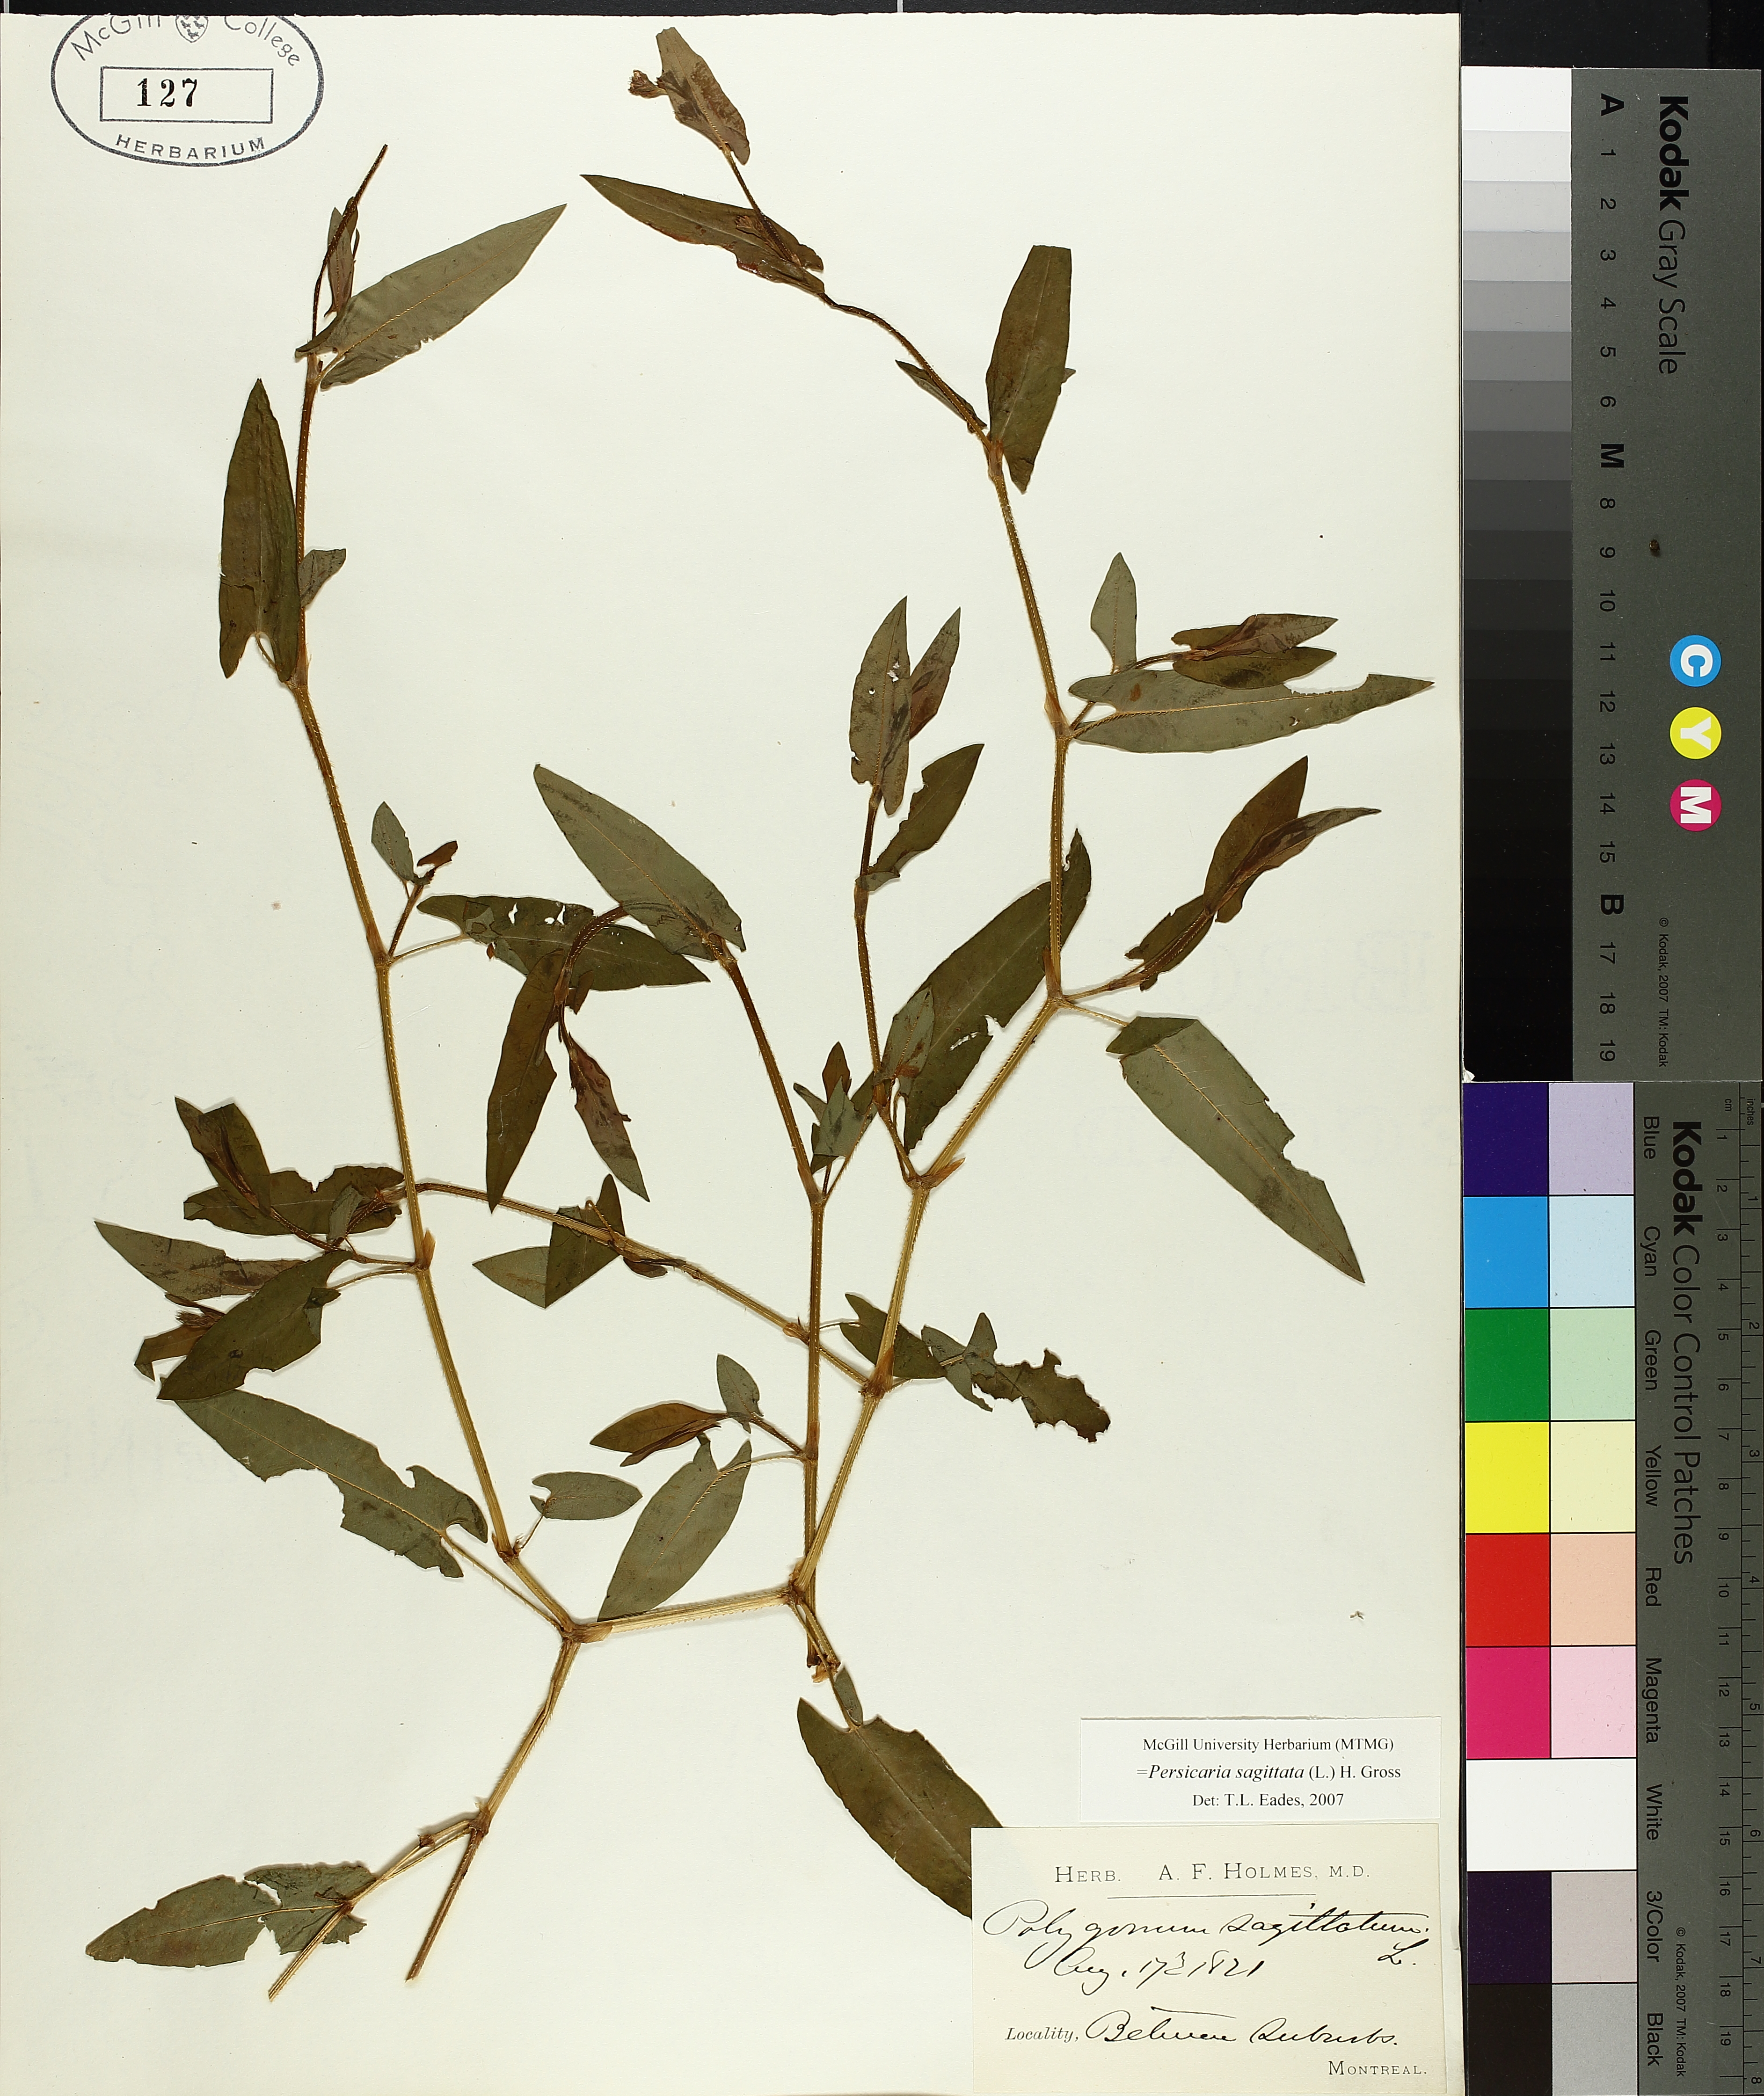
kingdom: Plantae
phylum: Tracheophyta
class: Magnoliopsida
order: Caryophyllales
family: Polygonaceae
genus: Persicaria
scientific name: Persicaria sagittata
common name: American tearthumb
